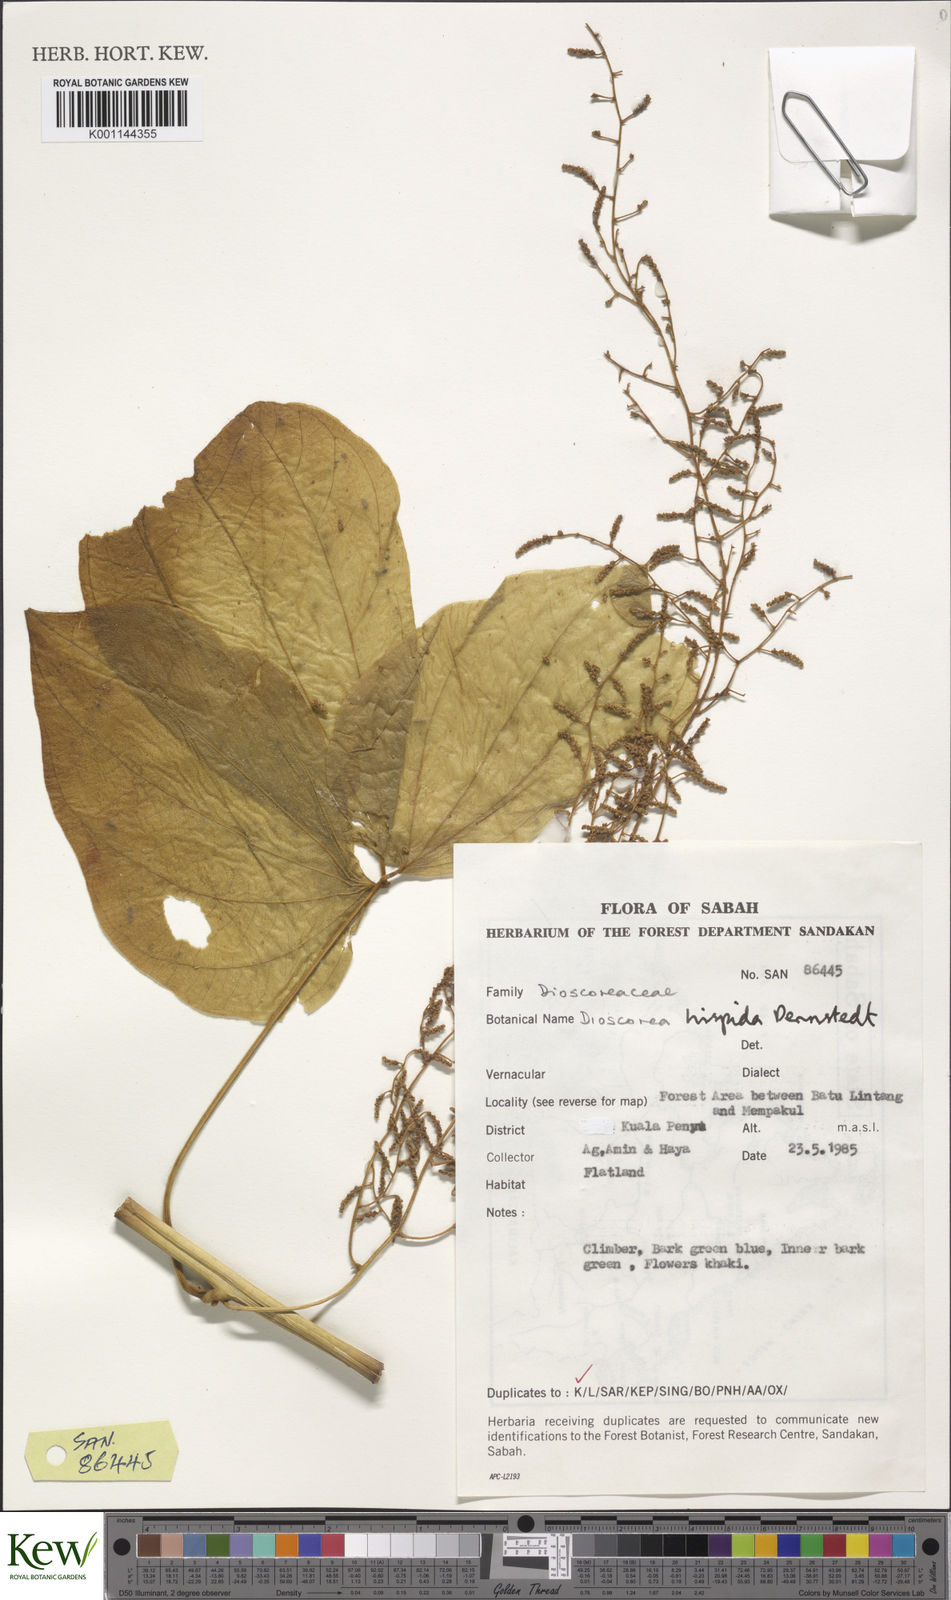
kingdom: Plantae
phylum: Tracheophyta
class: Liliopsida
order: Dioscoreales
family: Dioscoreaceae
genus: Dioscorea
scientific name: Dioscorea hispida
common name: Asiatic bitter yam
